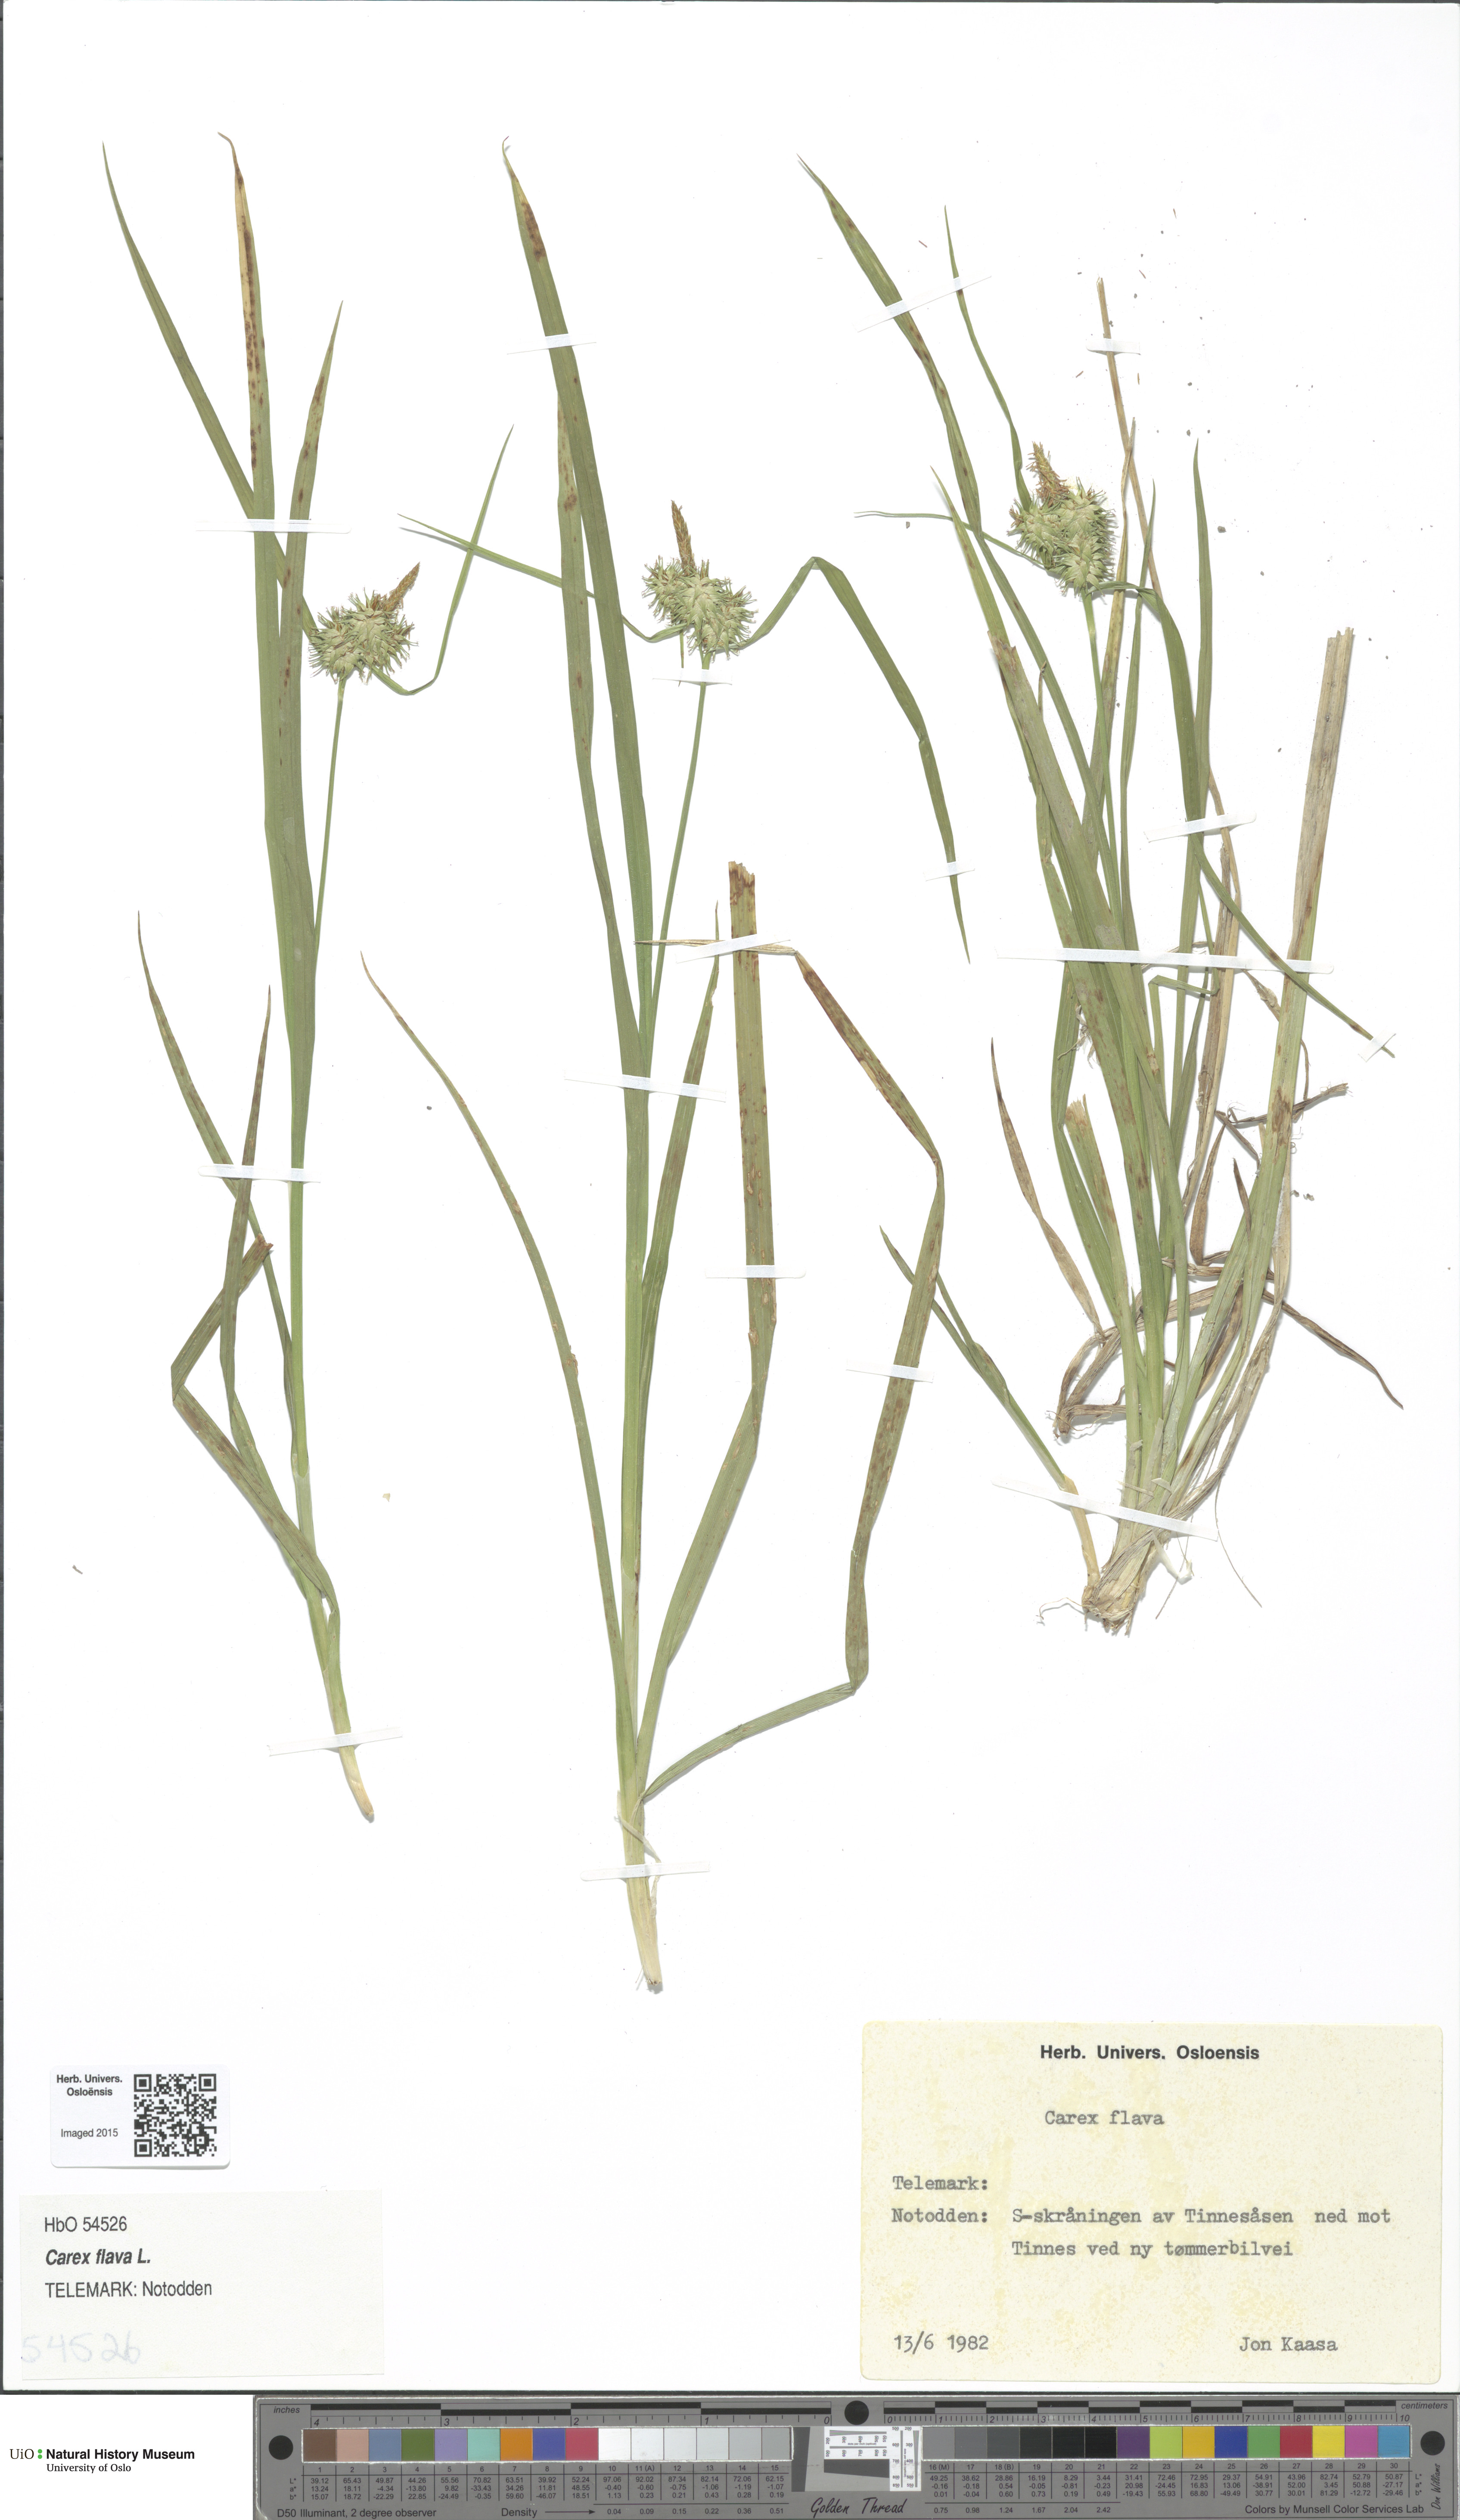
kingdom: Plantae
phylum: Tracheophyta
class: Liliopsida
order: Poales
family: Cyperaceae
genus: Carex
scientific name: Carex flava
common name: Large yellow-sedge
